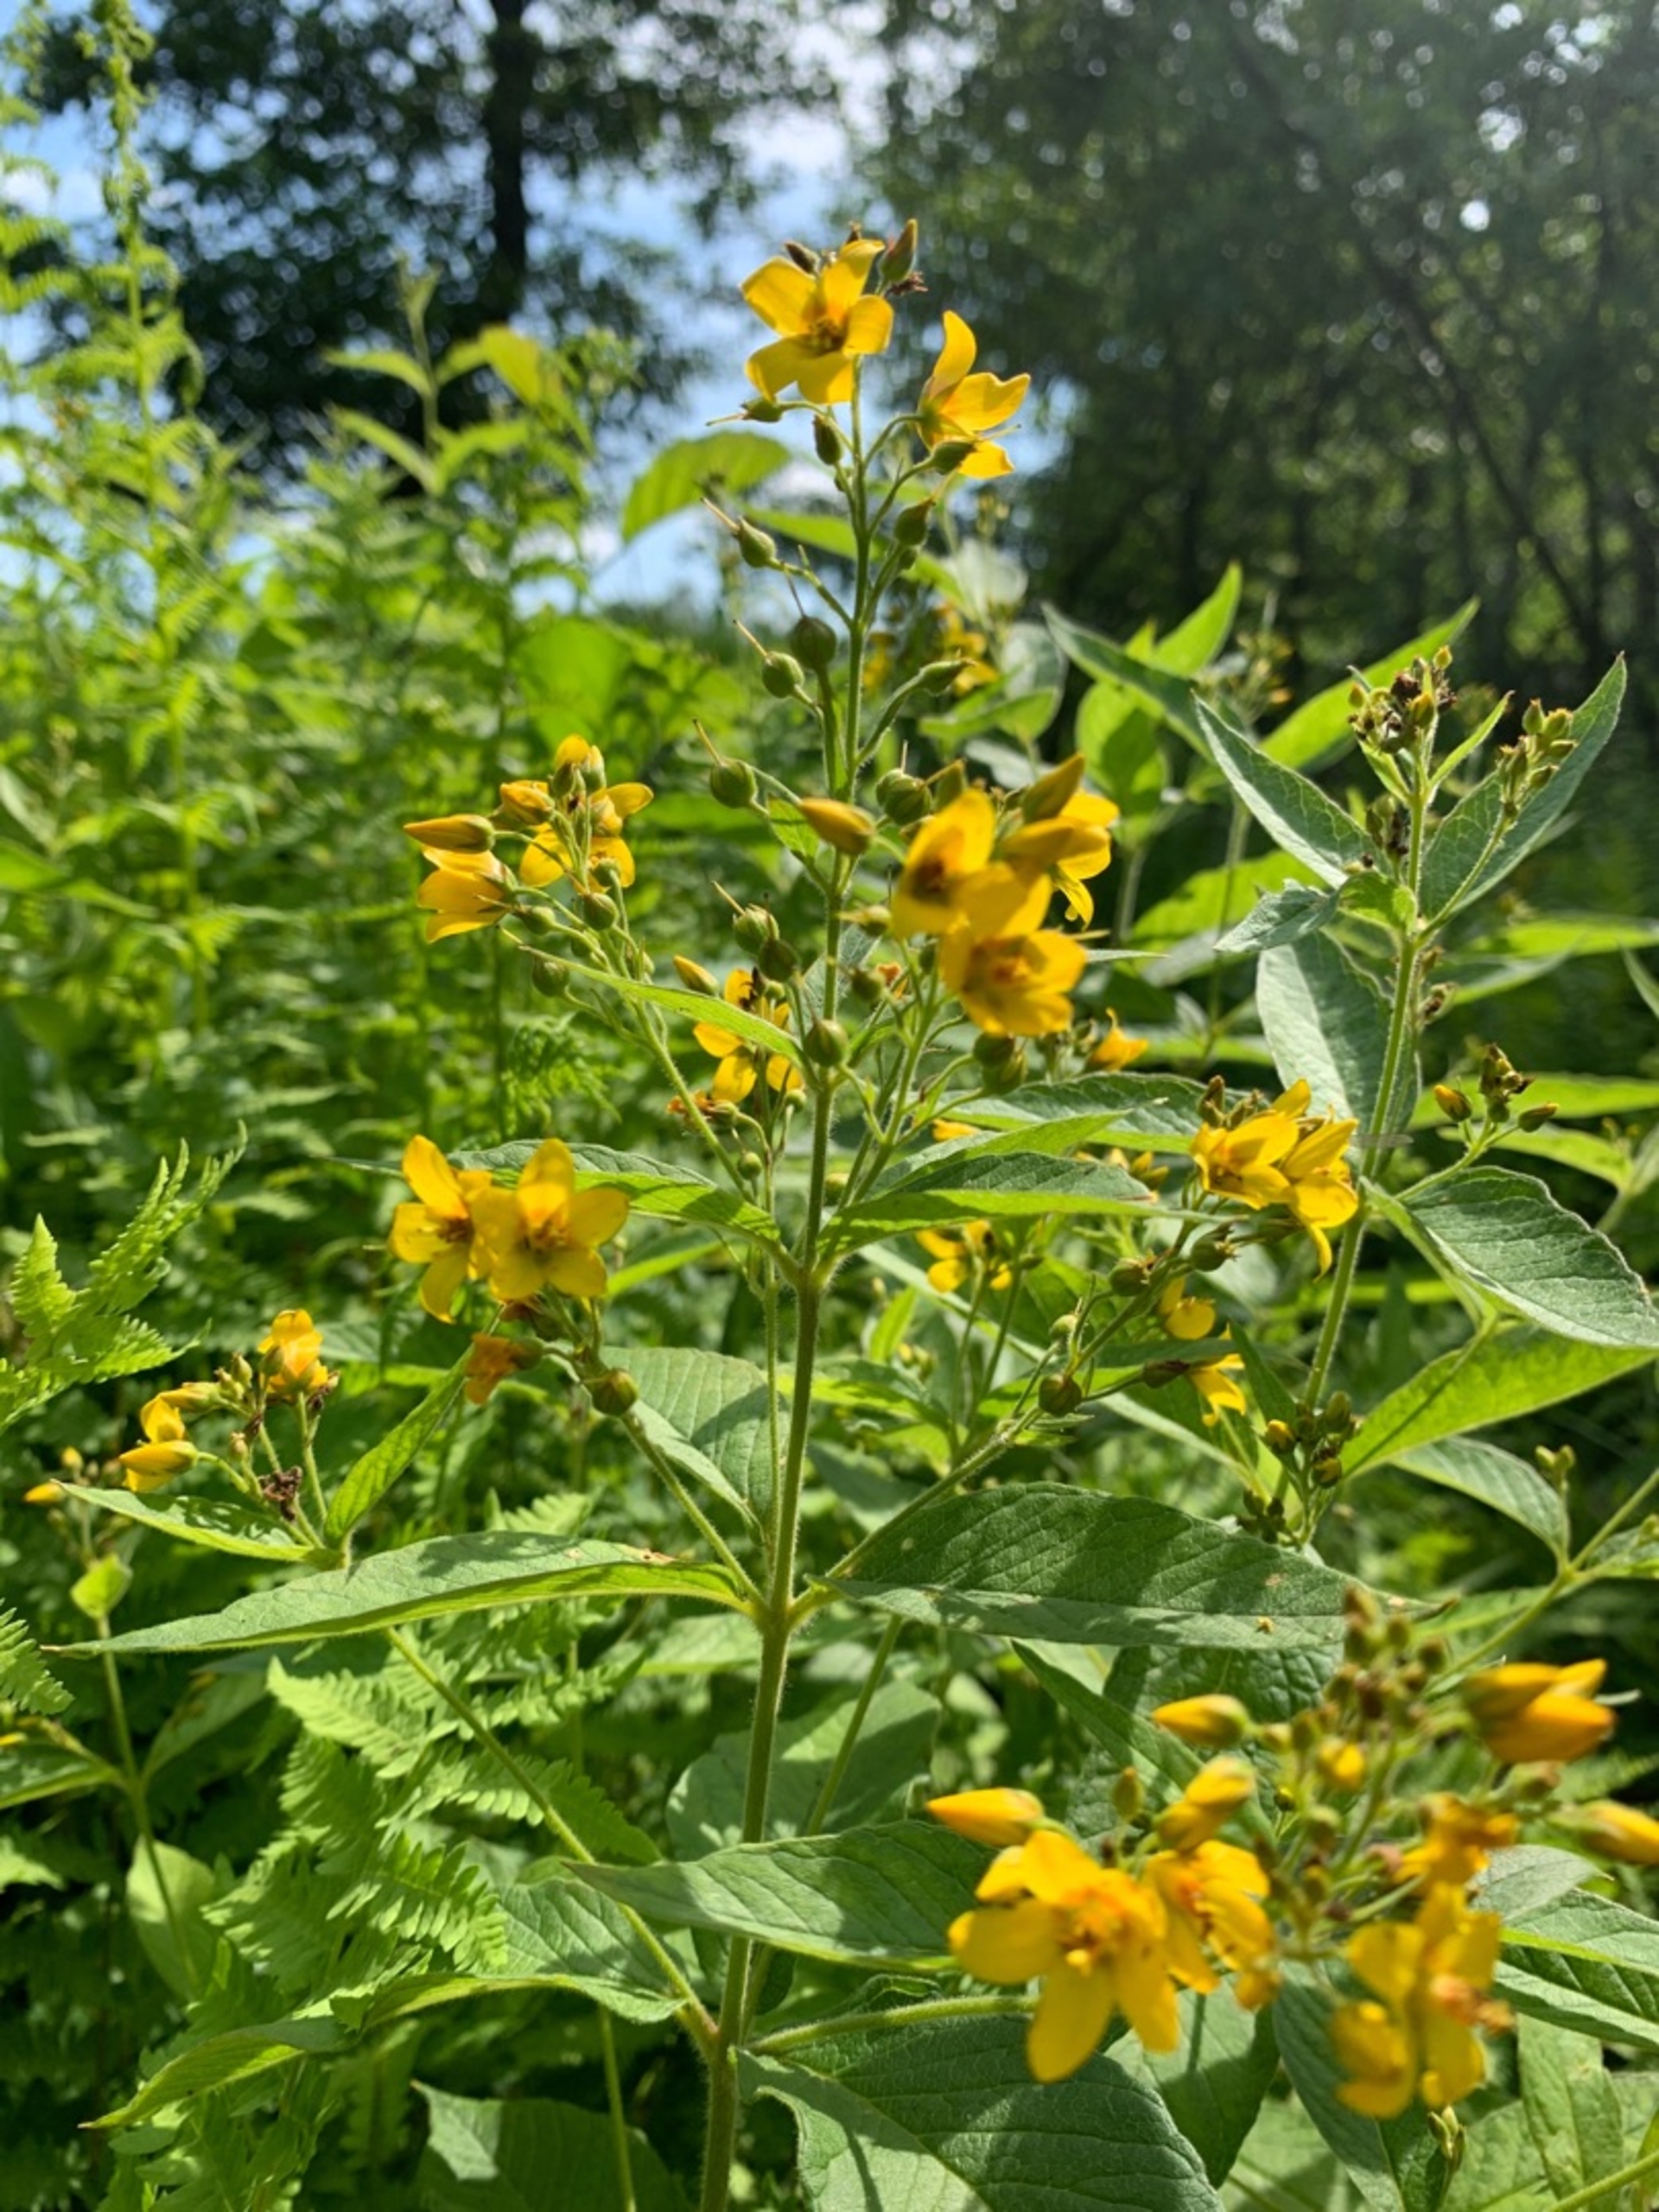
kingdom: Plantae
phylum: Tracheophyta
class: Magnoliopsida
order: Ericales
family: Primulaceae
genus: Lysimachia
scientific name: Lysimachia vulgaris
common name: Almindelig fredløs
